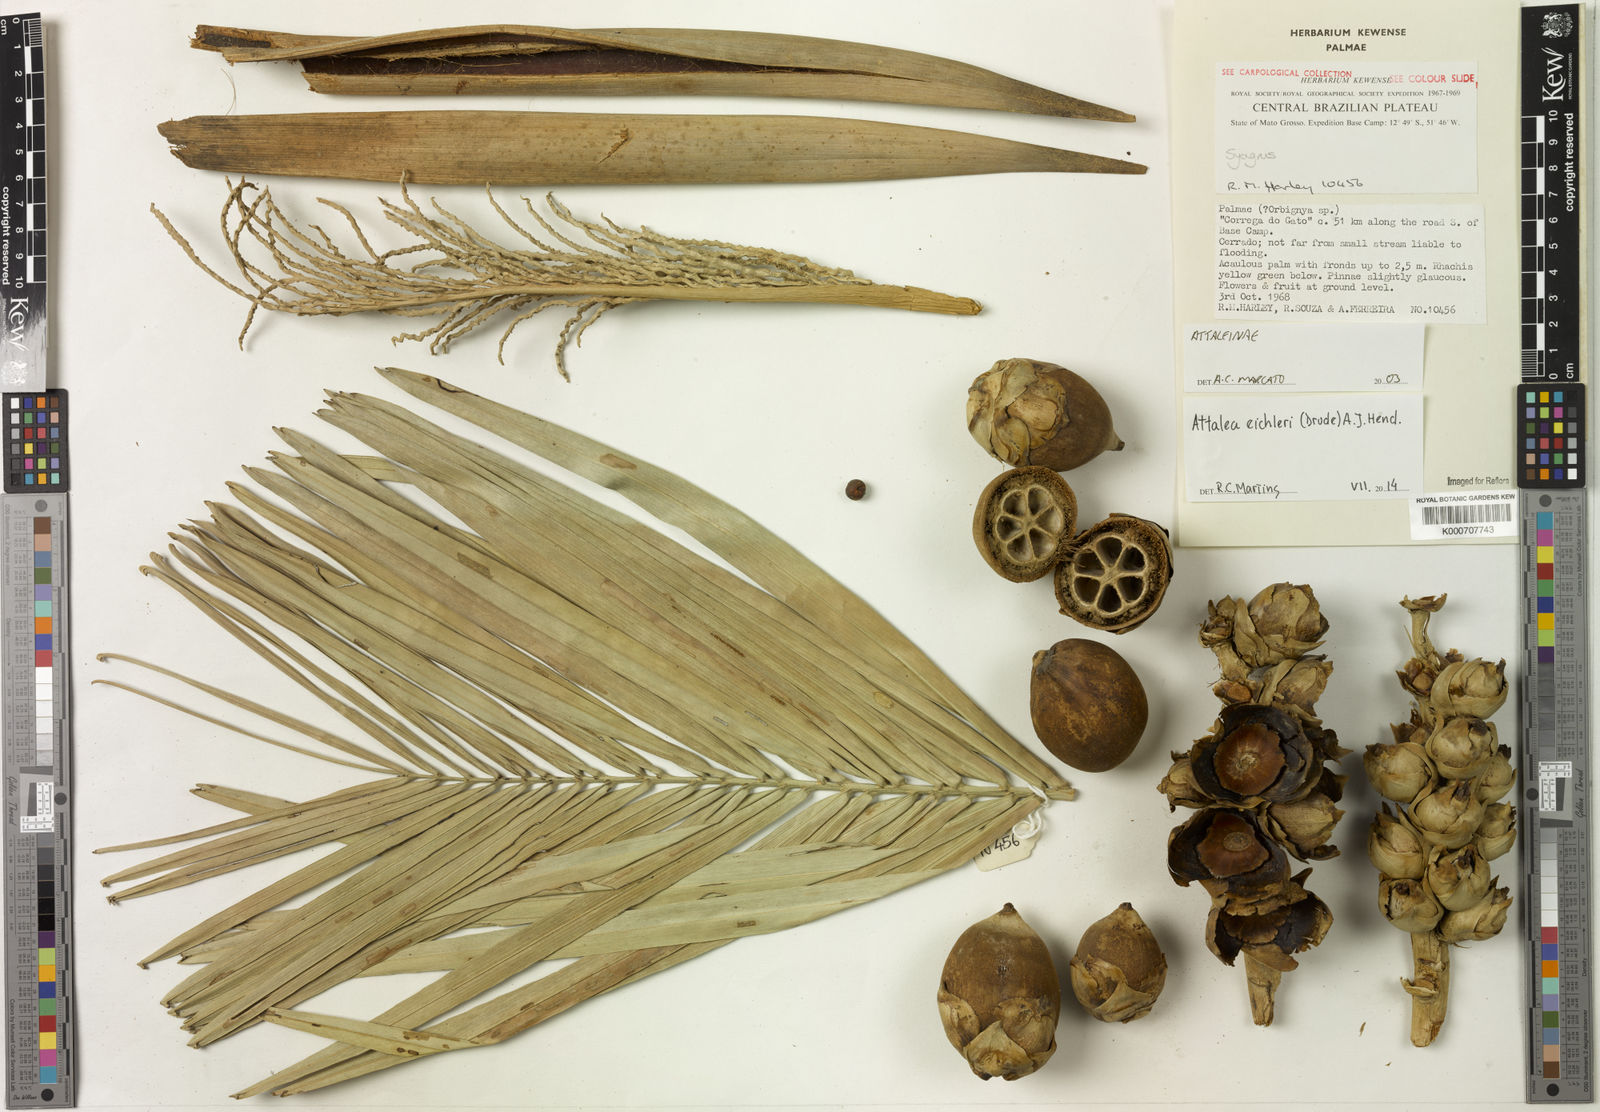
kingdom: Plantae
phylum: Tracheophyta
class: Liliopsida
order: Arecales
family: Arecaceae
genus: Syagrus
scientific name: Syagrus
